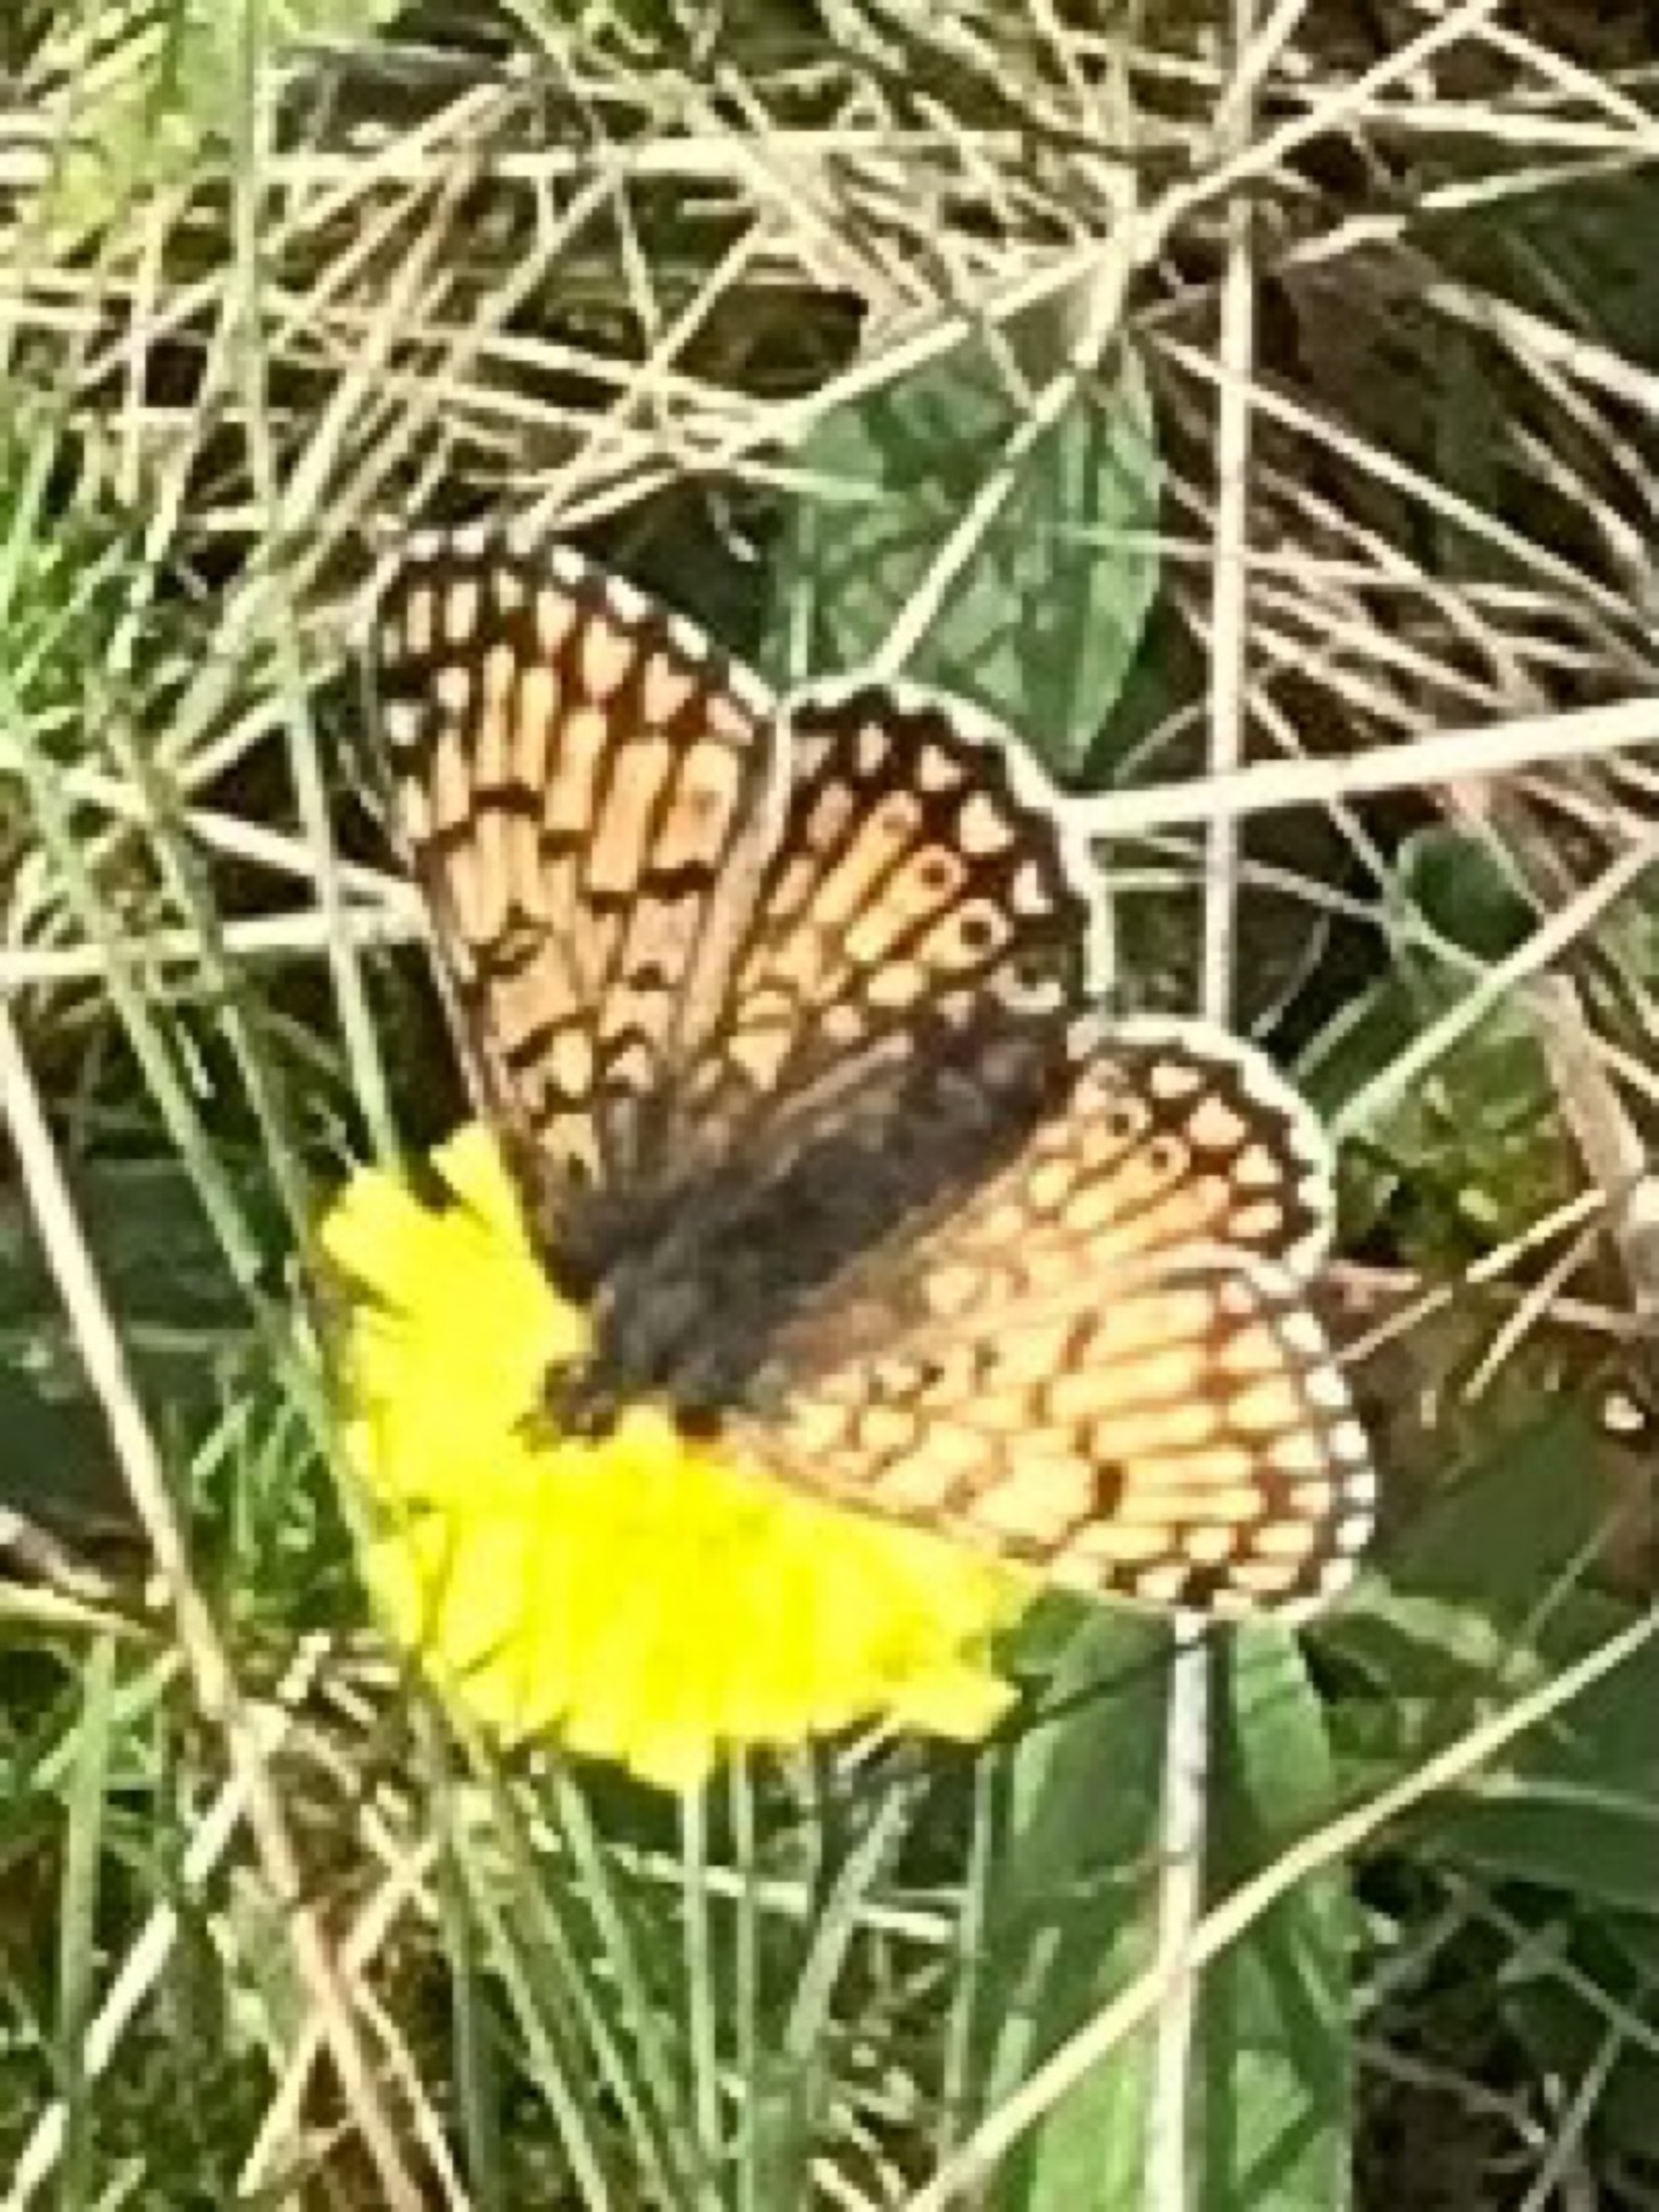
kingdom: Animalia
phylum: Arthropoda
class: Insecta
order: Lepidoptera
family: Nymphalidae
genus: Melitaea
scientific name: Melitaea cinxia
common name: Okkergul pletvinge
